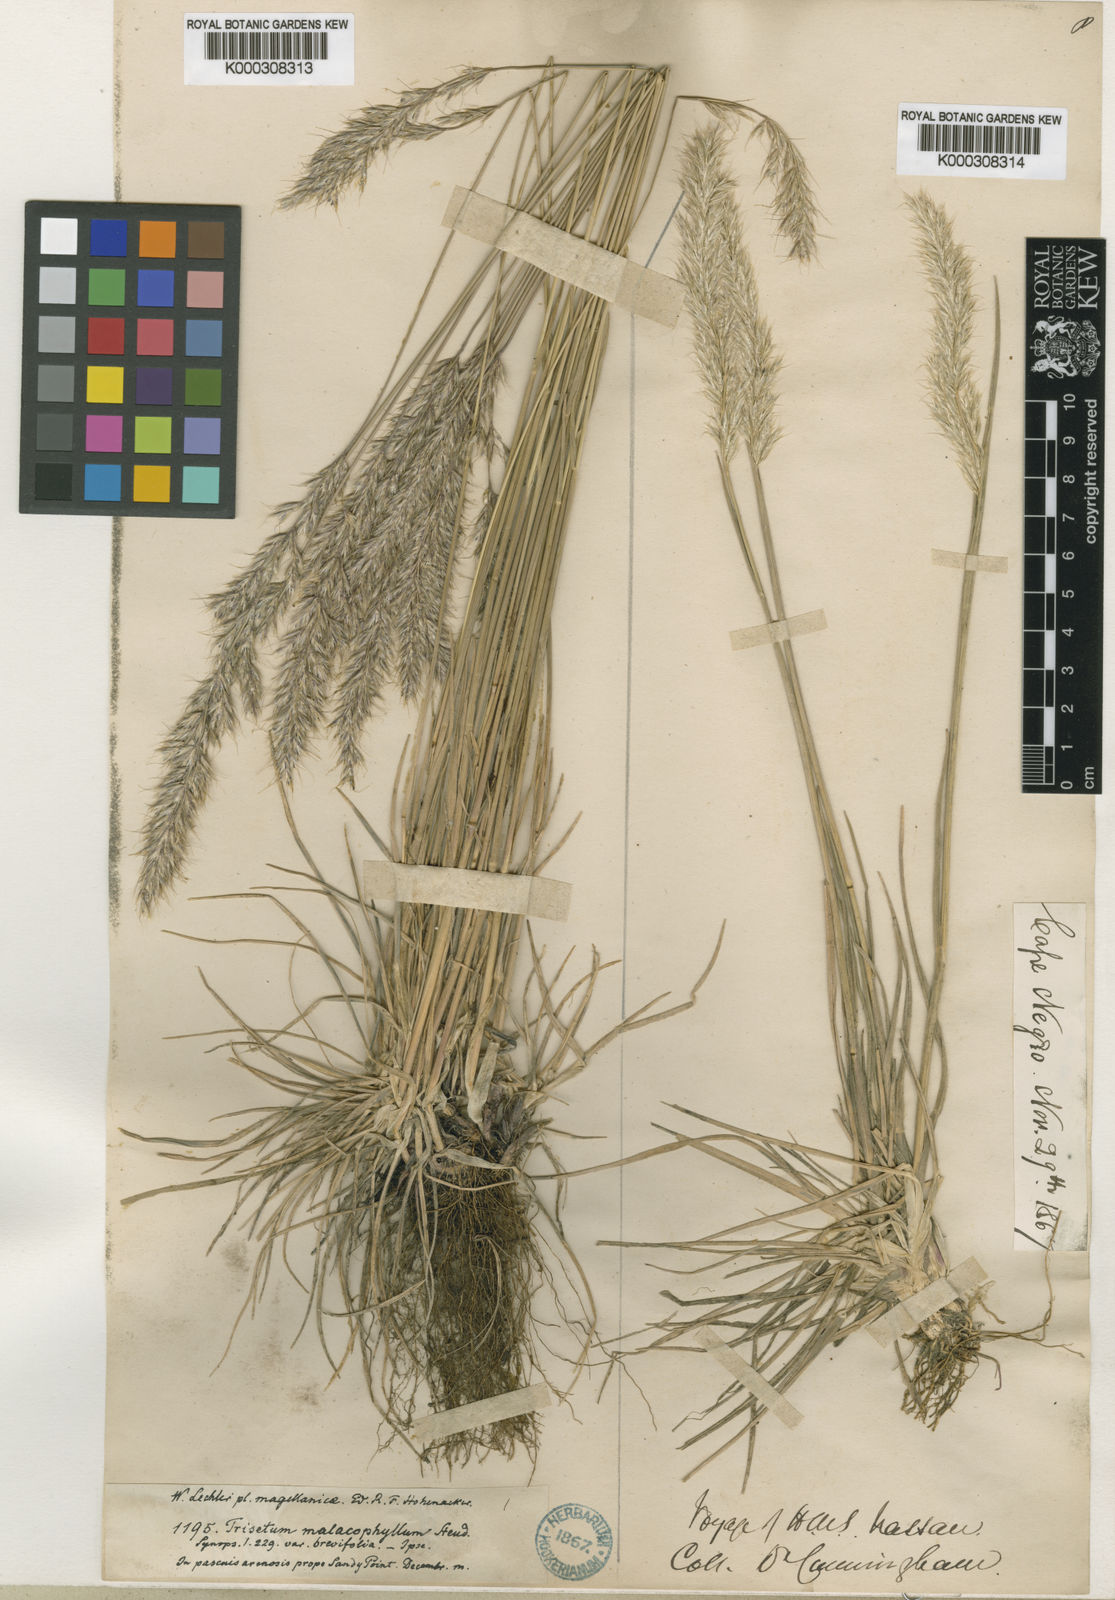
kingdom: Plantae
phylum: Tracheophyta
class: Liliopsida
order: Poales
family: Poaceae
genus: Koeleria
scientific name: Koeleria spicata
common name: Mountain trisetum
